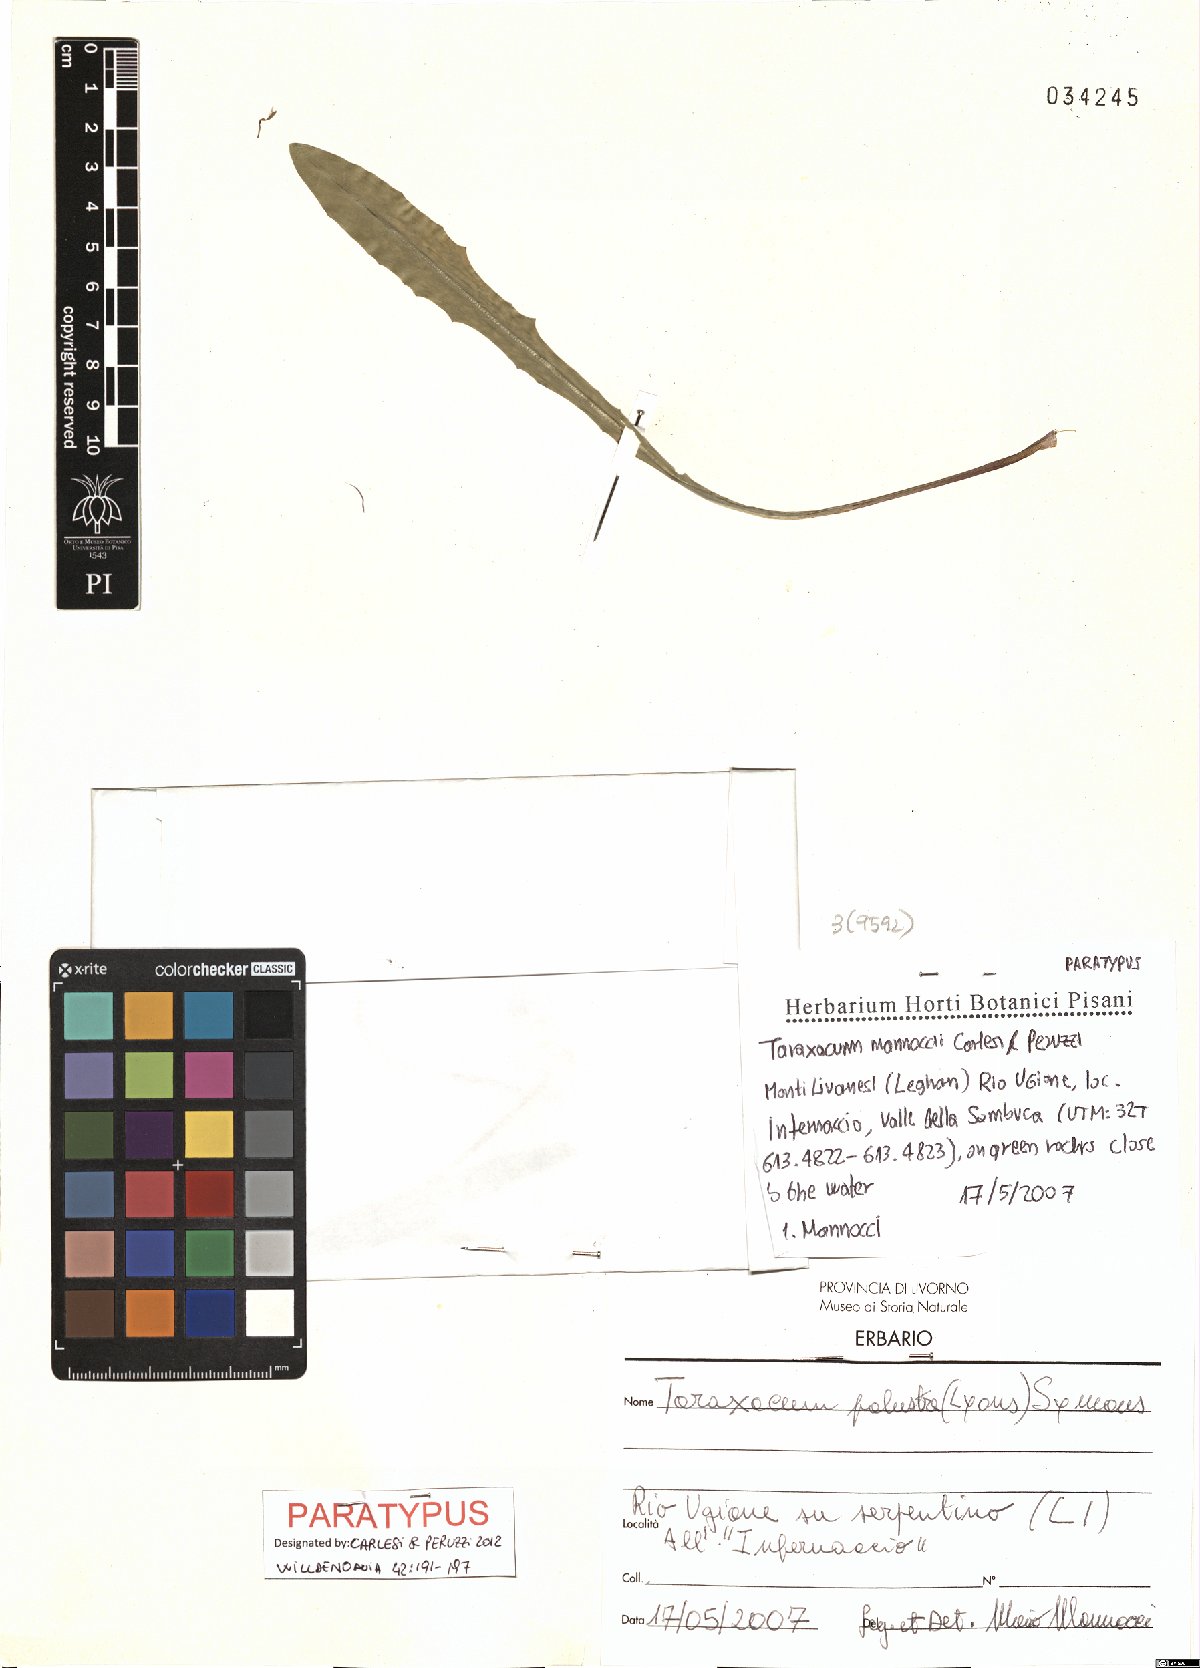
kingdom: Plantae
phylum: Tracheophyta
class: Magnoliopsida
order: Asterales
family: Asteraceae
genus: Taraxacum
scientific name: Taraxacum mannoccii
